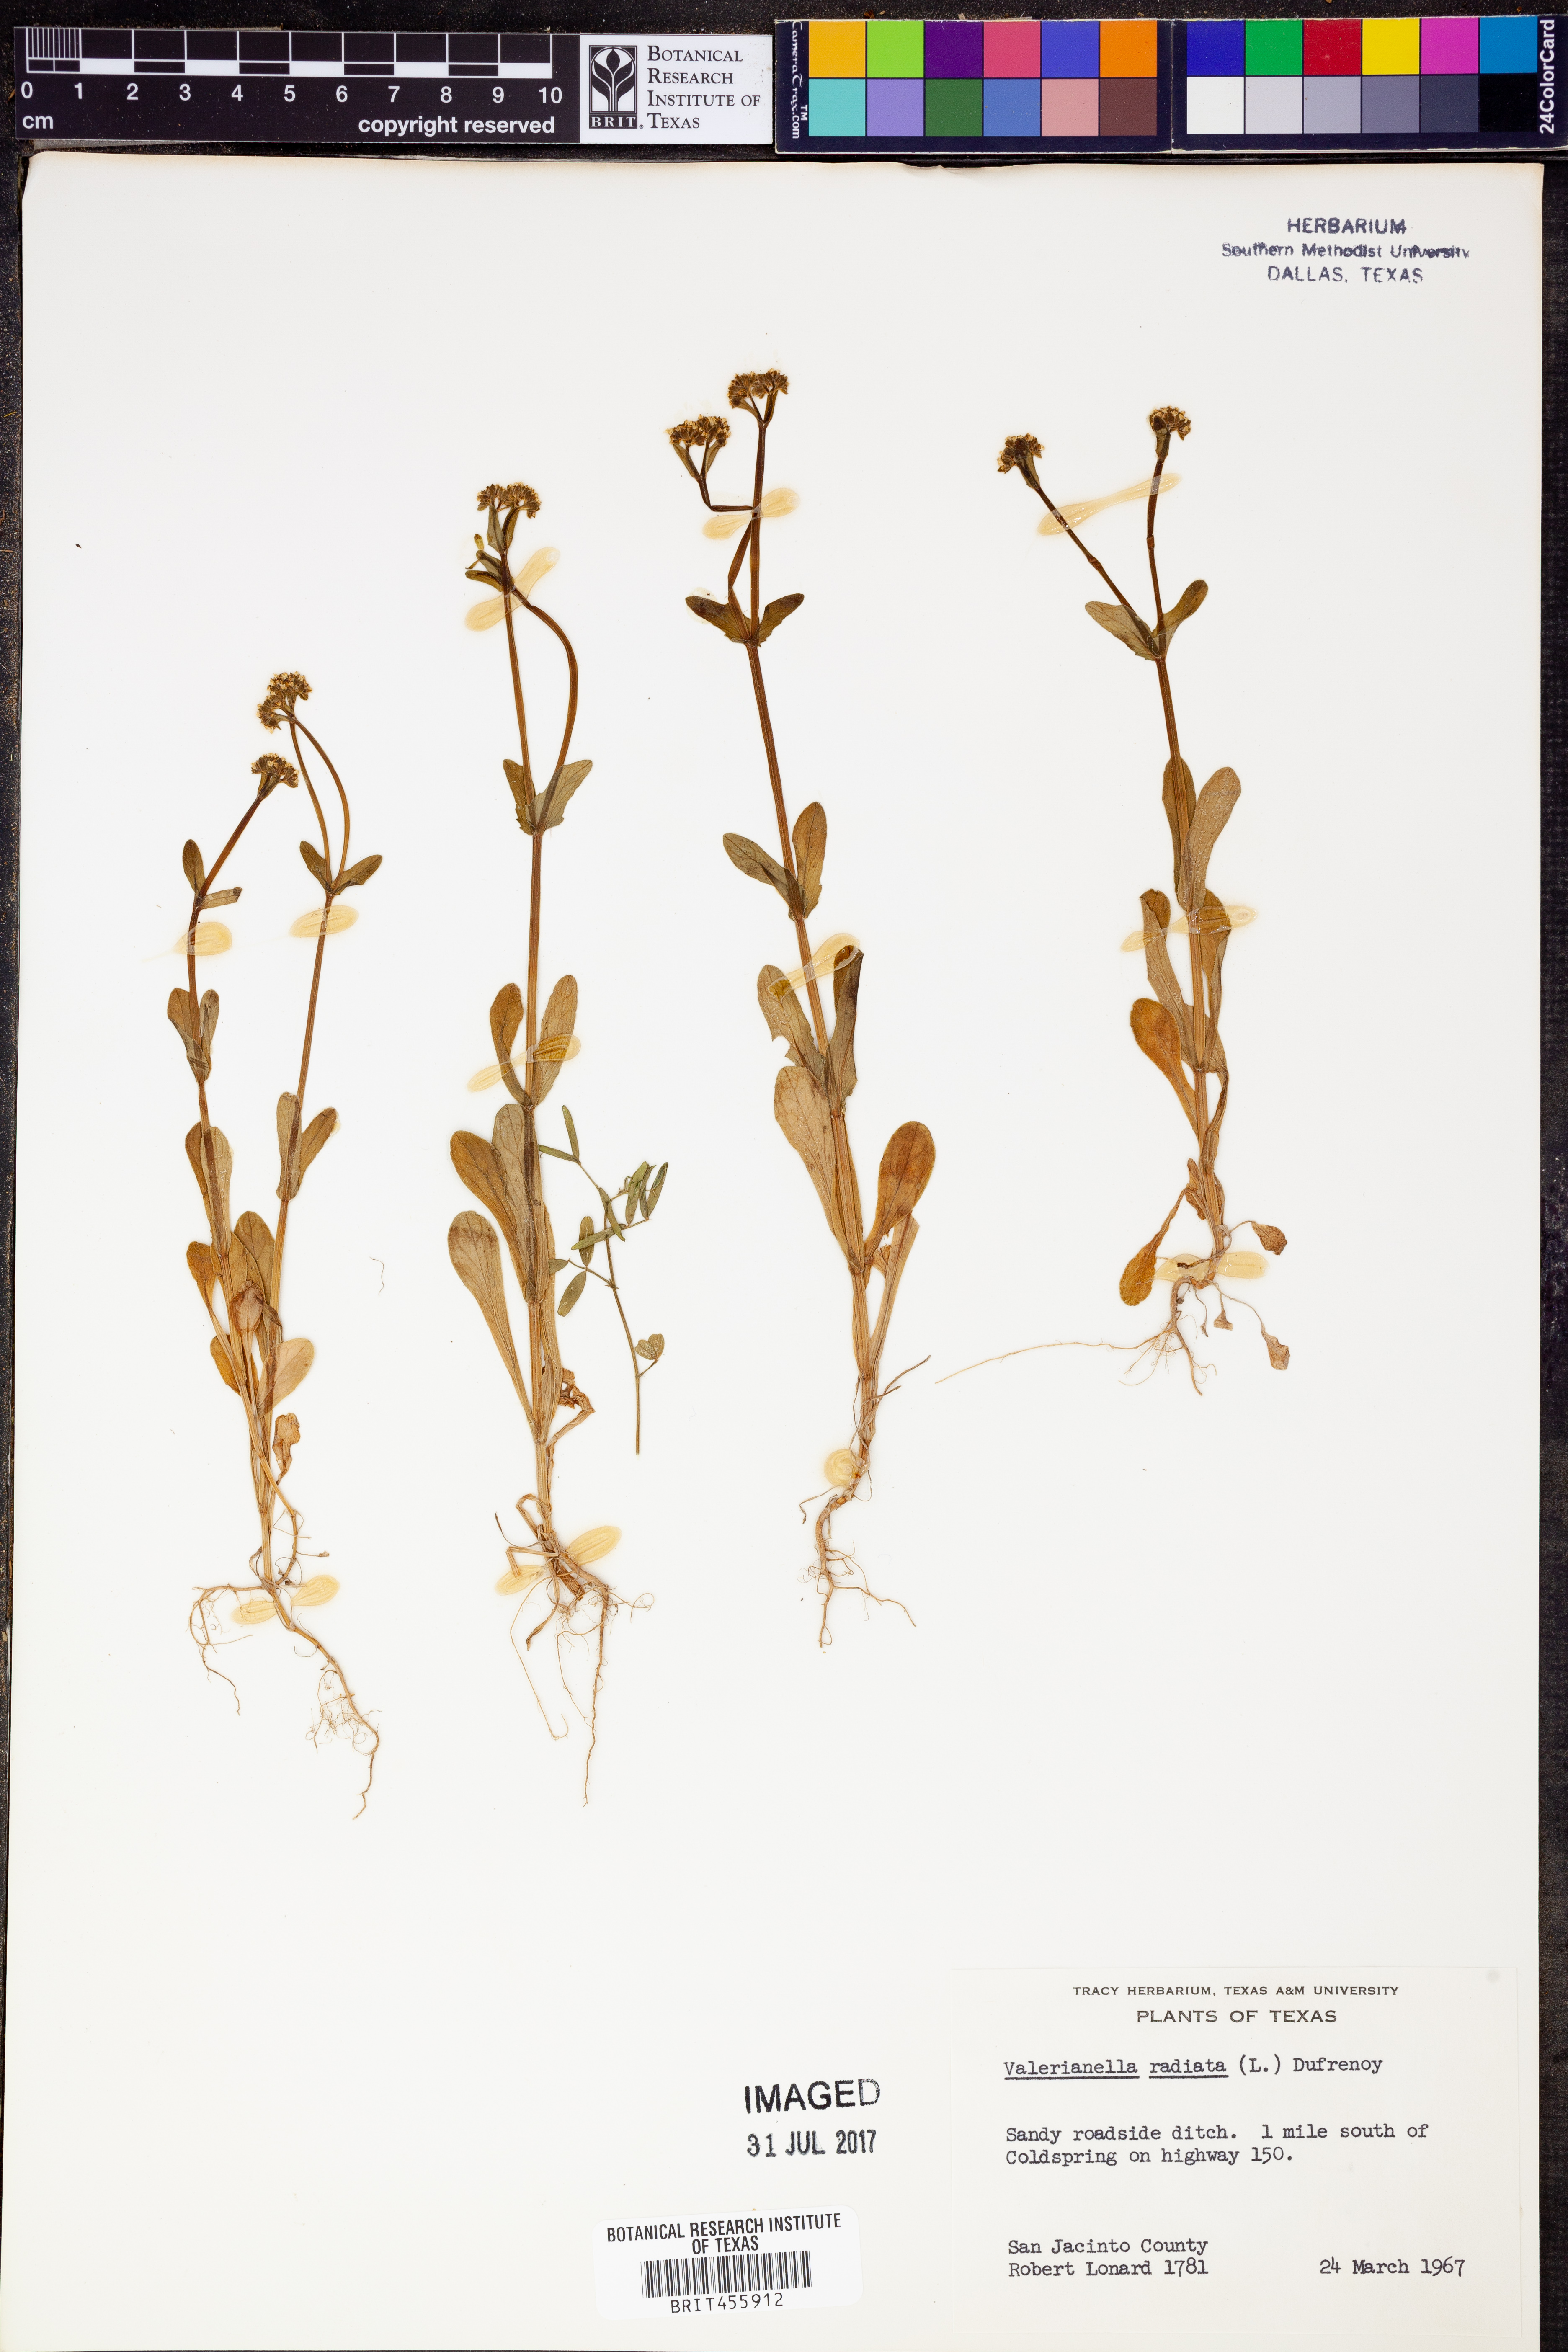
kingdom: Plantae
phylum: Tracheophyta
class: Magnoliopsida
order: Dipsacales
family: Caprifoliaceae
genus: Valerianella
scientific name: Valerianella radiata
